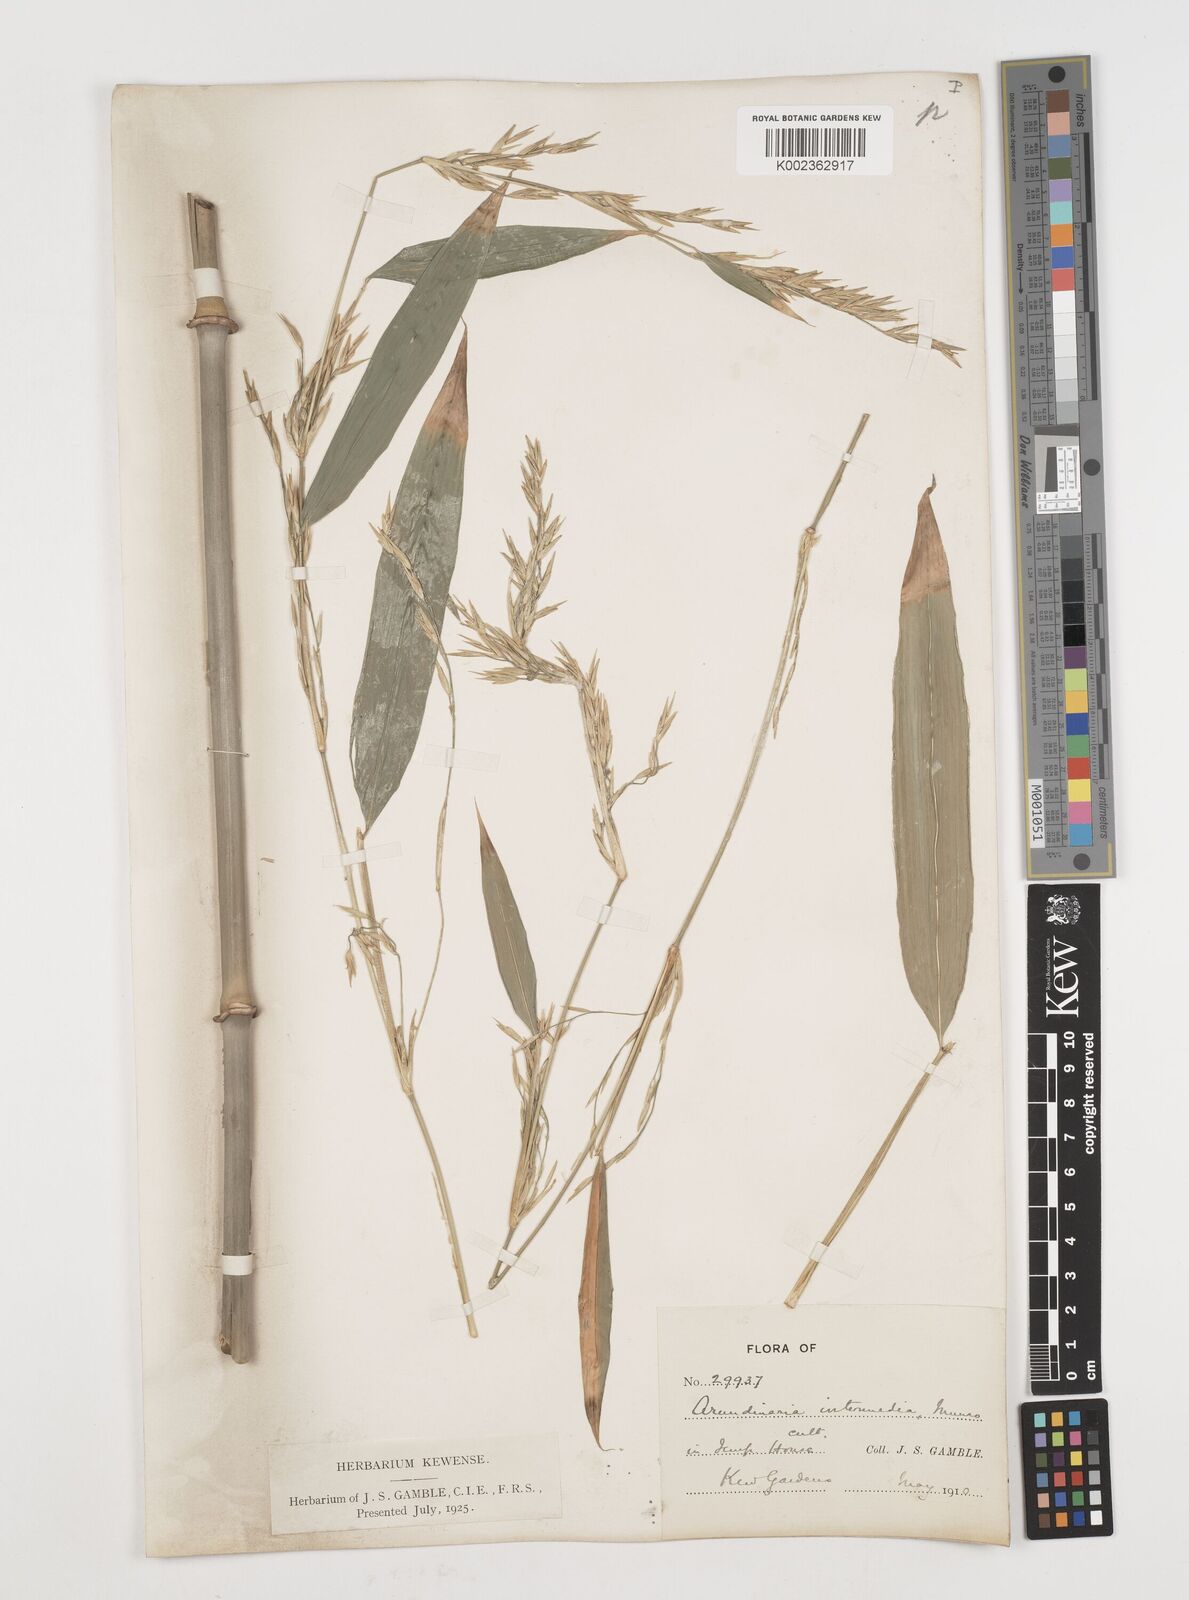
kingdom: Plantae
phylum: Tracheophyta
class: Liliopsida
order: Poales
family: Poaceae
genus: Drepanostachyum
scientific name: Drepanostachyum intermedium
